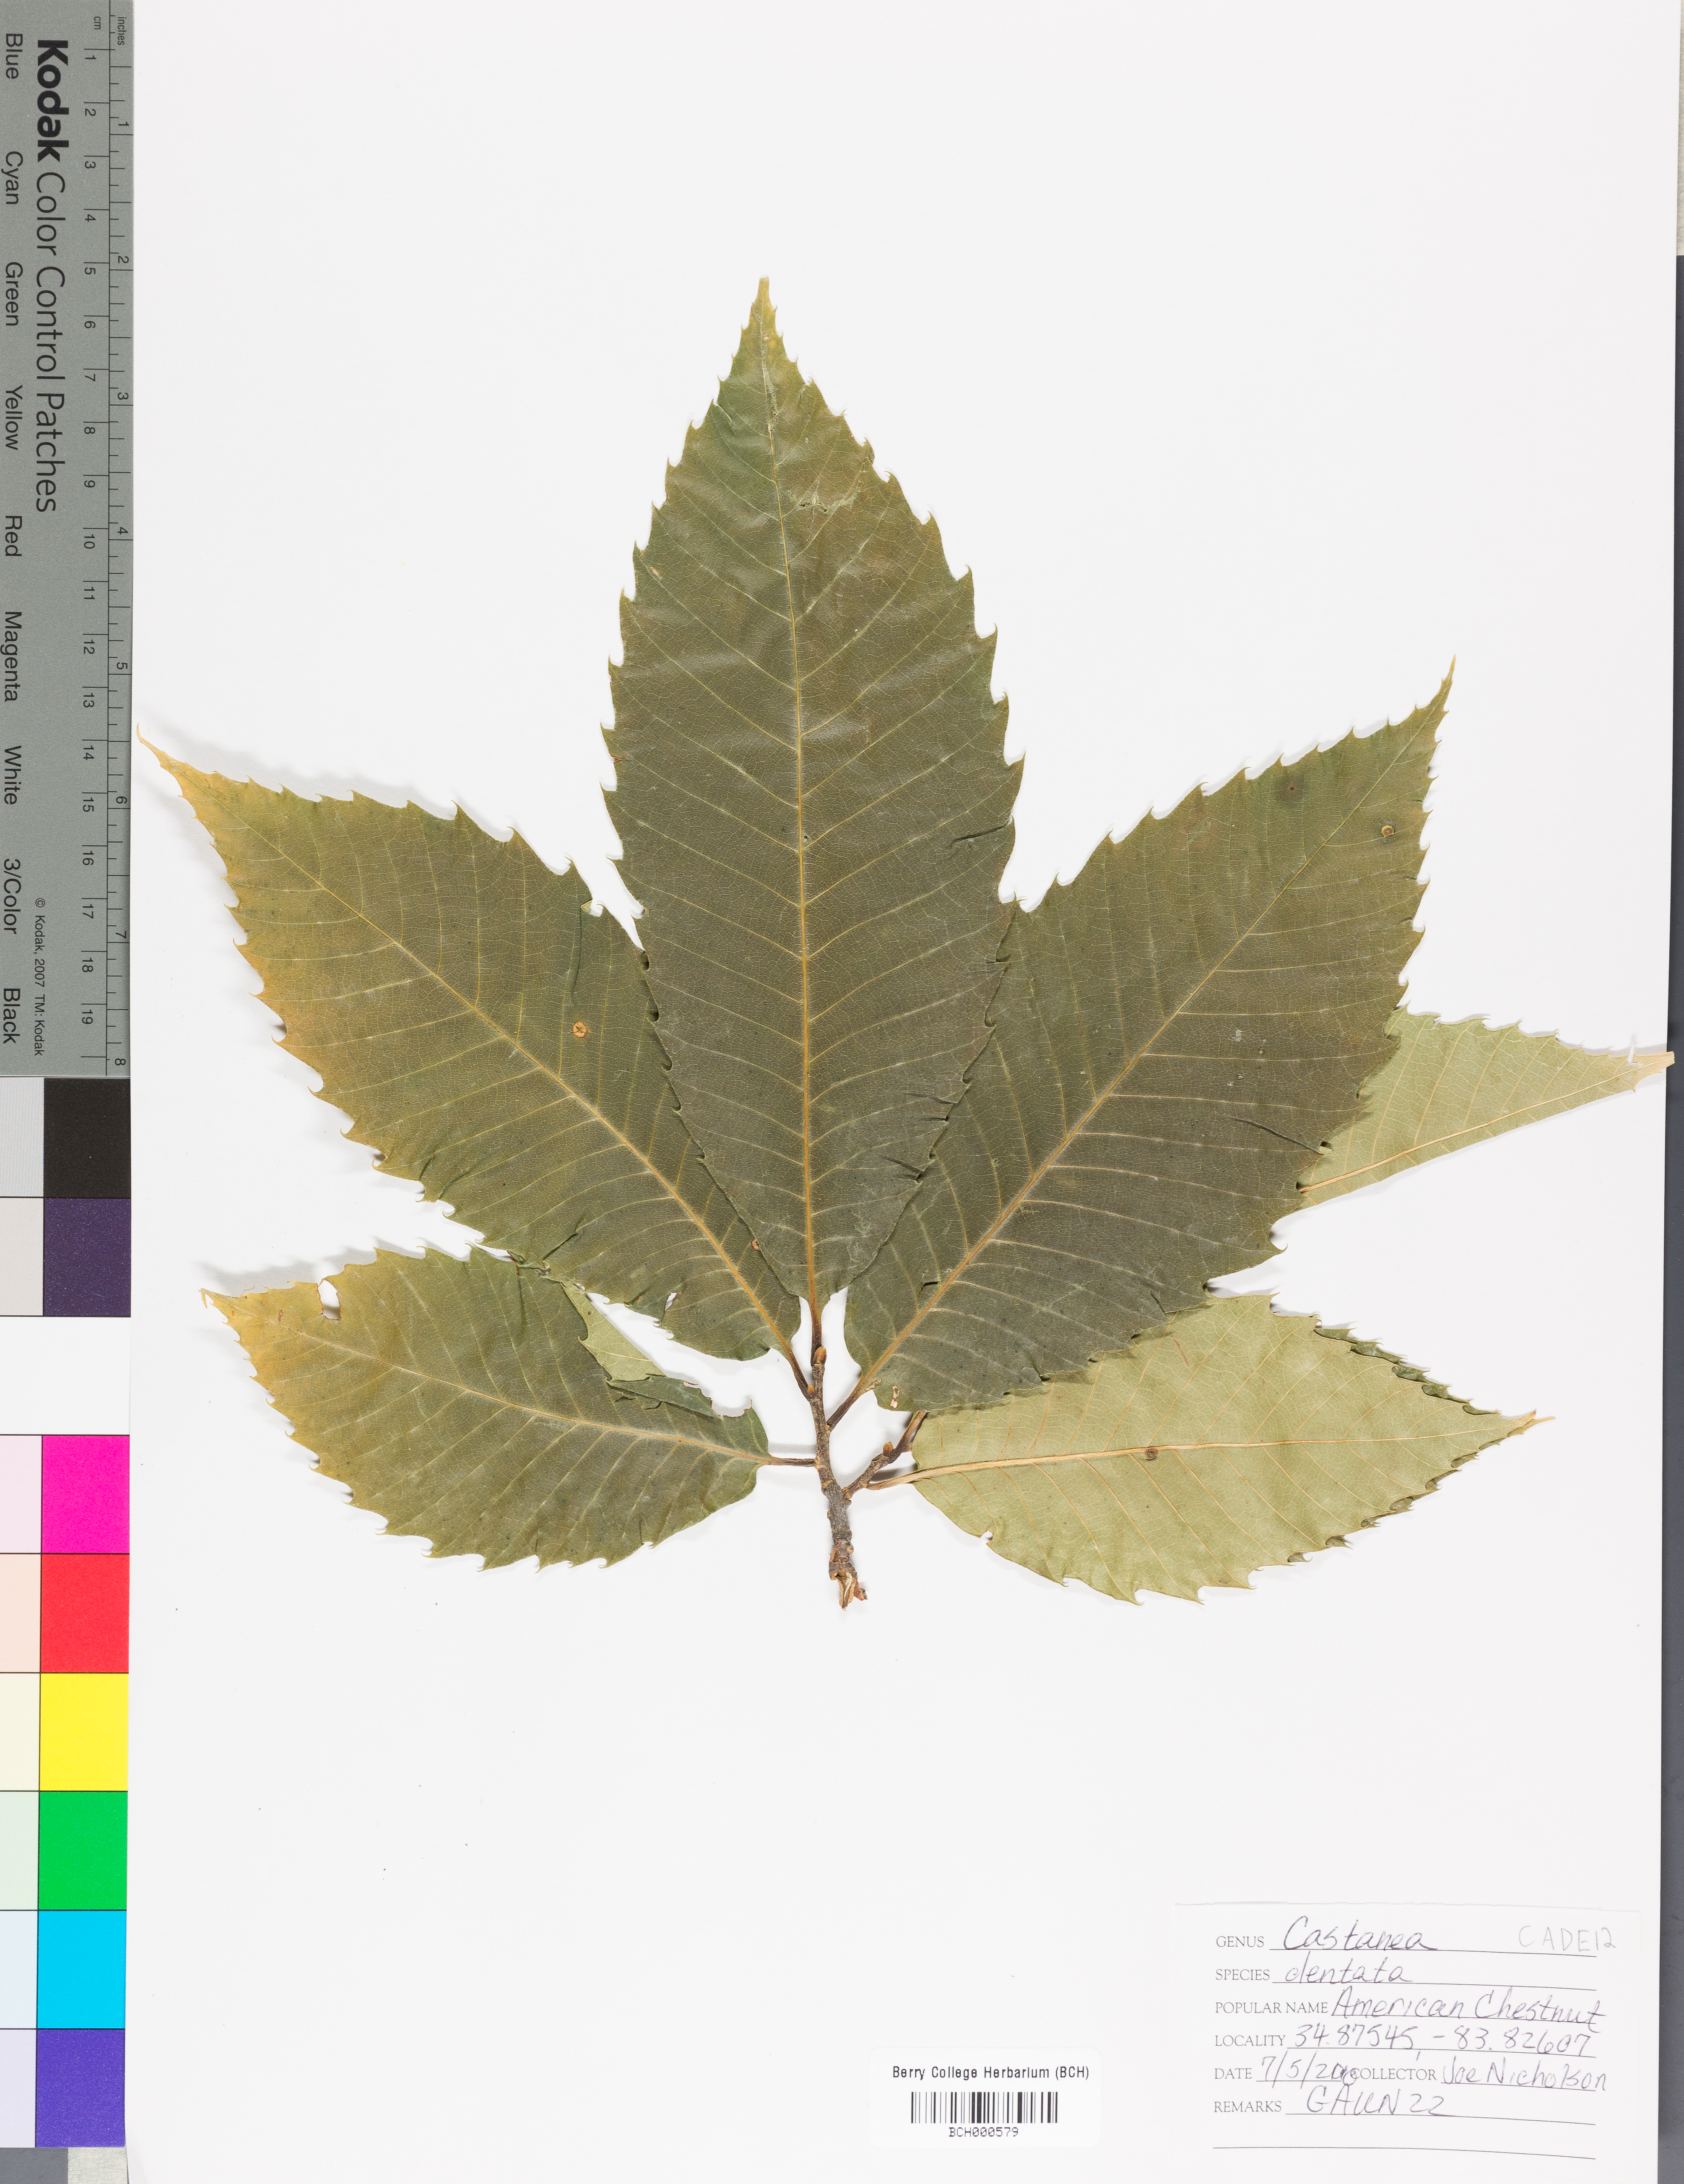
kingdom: Plantae
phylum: Tracheophyta
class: Magnoliopsida
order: Fagales
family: Fagaceae
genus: Castanea
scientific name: Castanea dentata
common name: American chestnut
